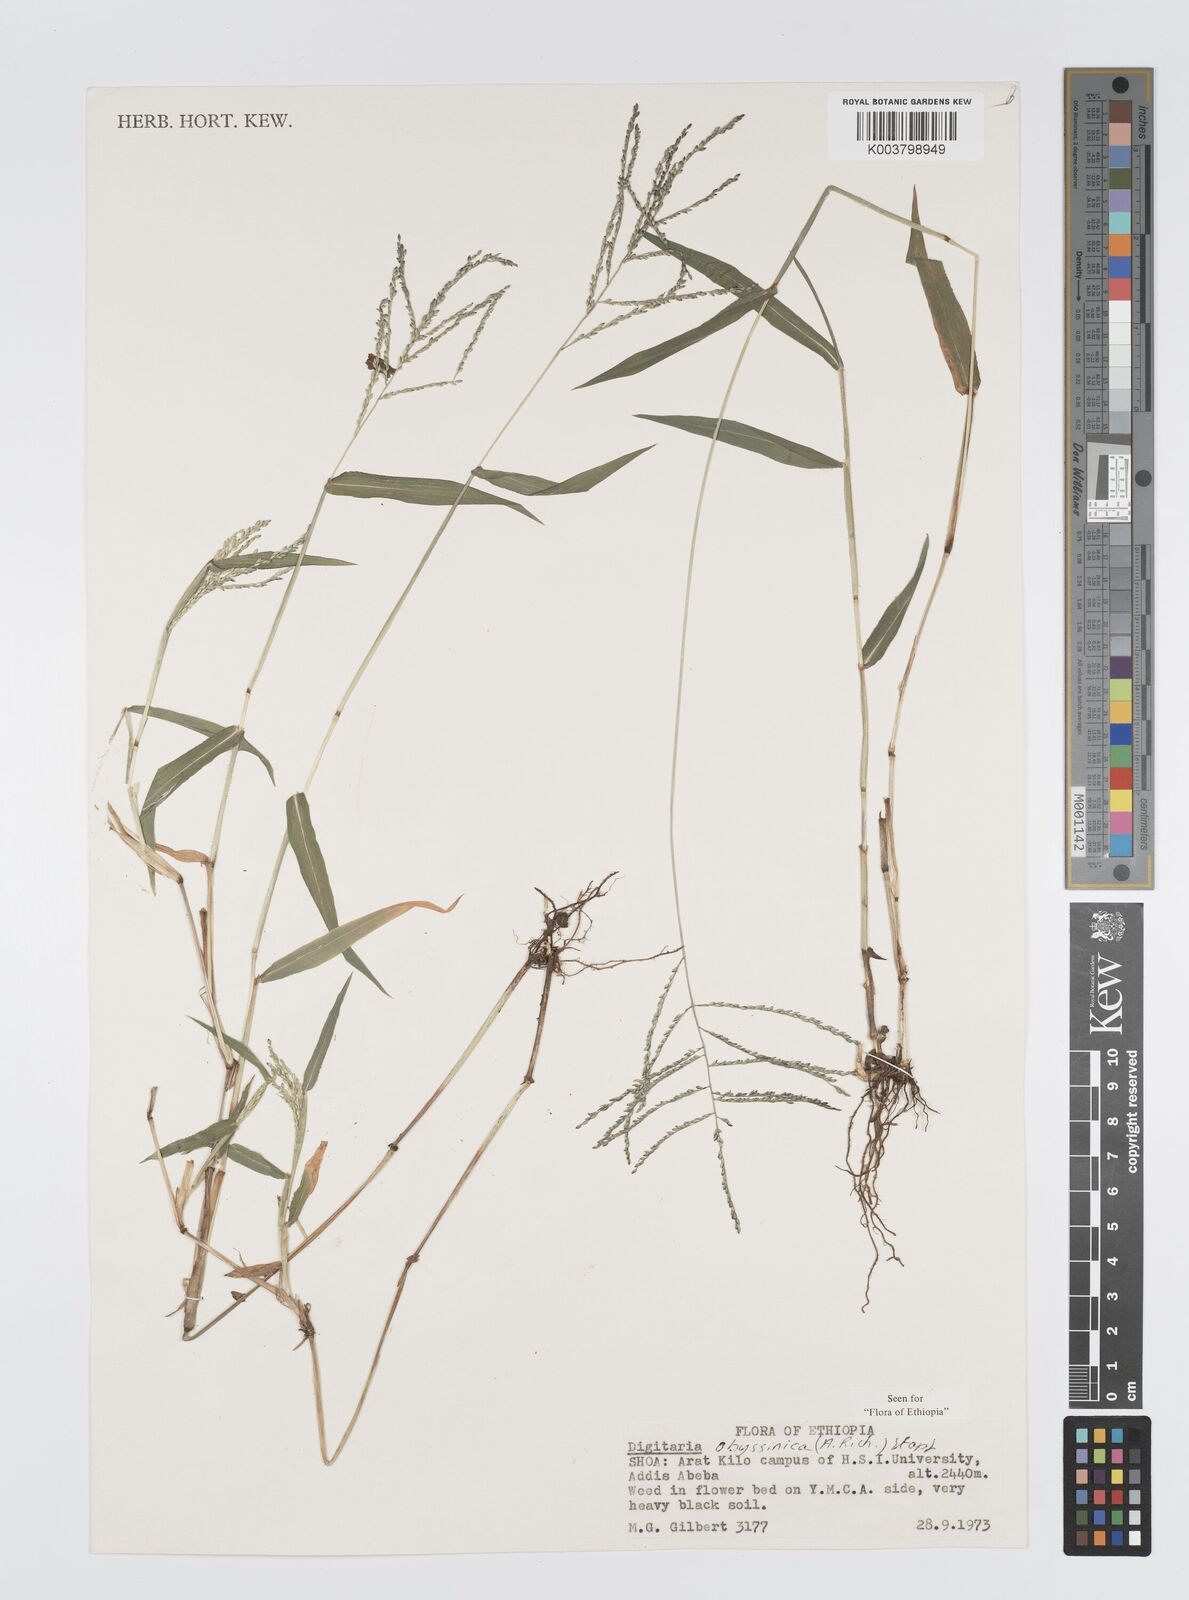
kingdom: Plantae
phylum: Tracheophyta
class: Liliopsida
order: Poales
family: Poaceae
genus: Digitaria
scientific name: Digitaria abyssinica
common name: African couchgrass
